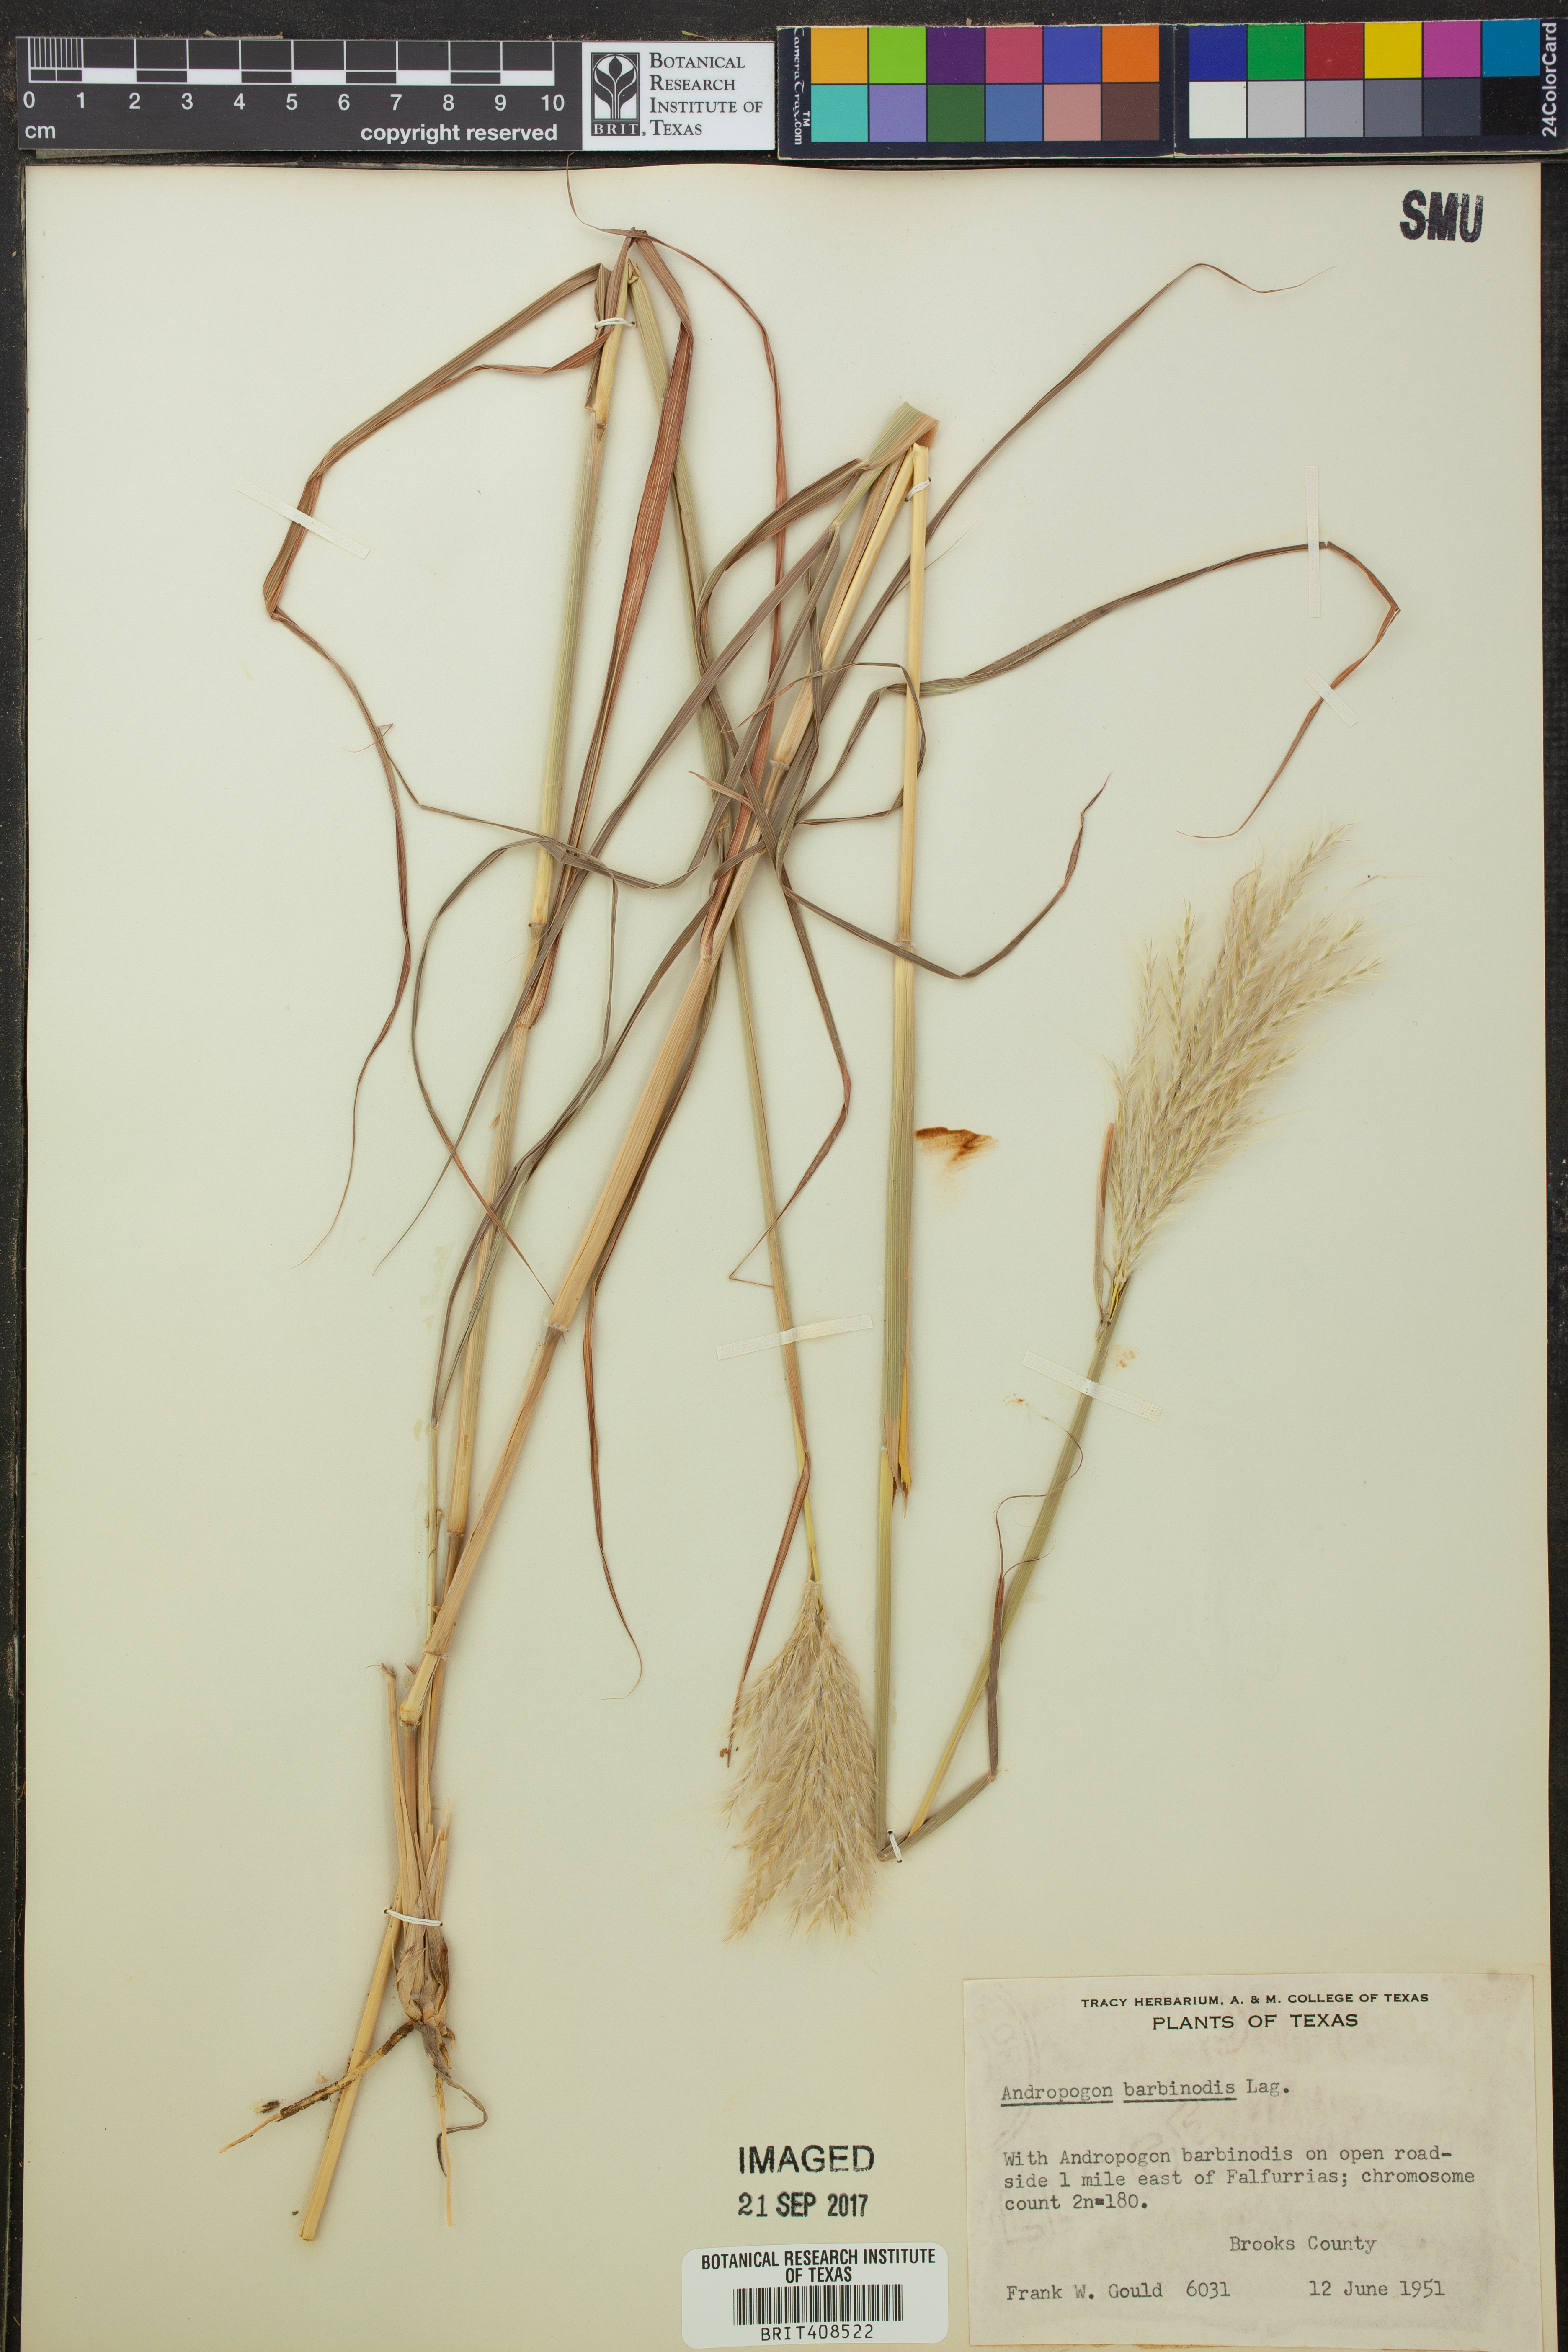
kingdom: Plantae
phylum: Tracheophyta
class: Liliopsida
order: Poales
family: Poaceae
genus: Bothriochloa
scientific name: Bothriochloa barbinodis
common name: Cane bluestem
